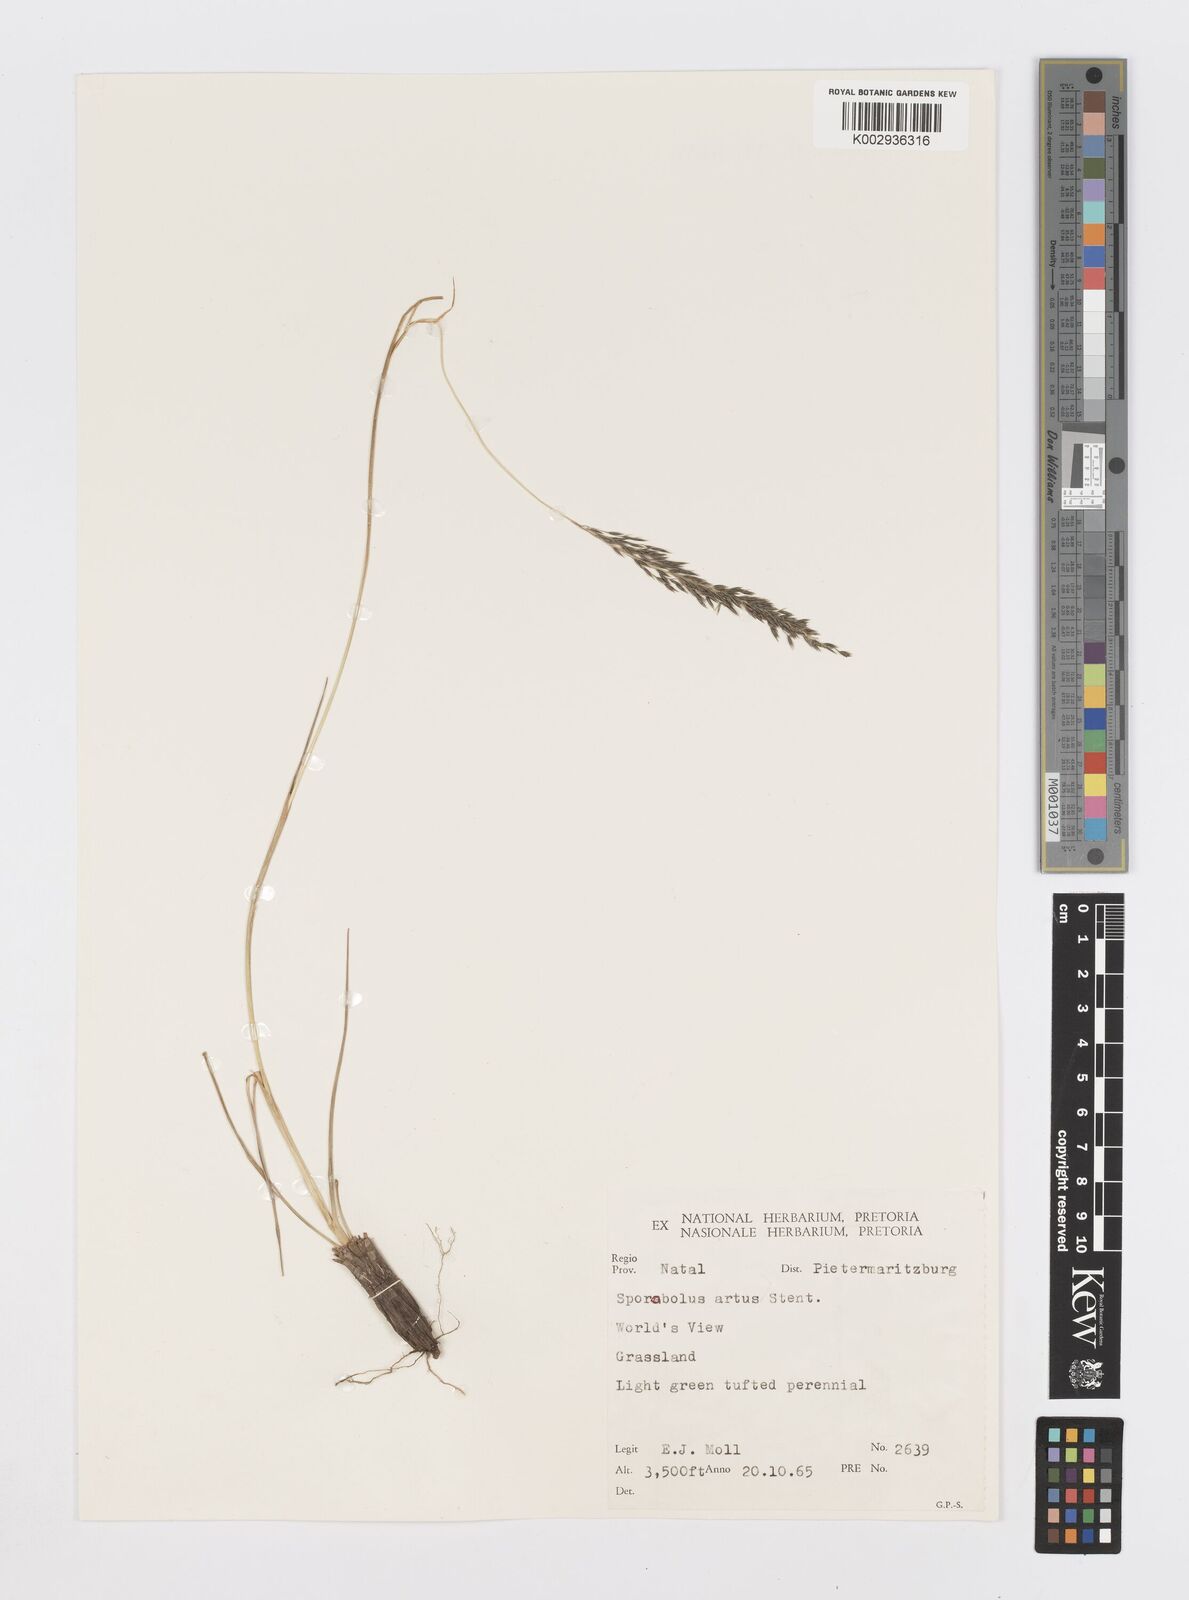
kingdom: Plantae
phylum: Tracheophyta
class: Liliopsida
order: Poales
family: Poaceae
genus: Sporobolus
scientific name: Sporobolus subulatus
